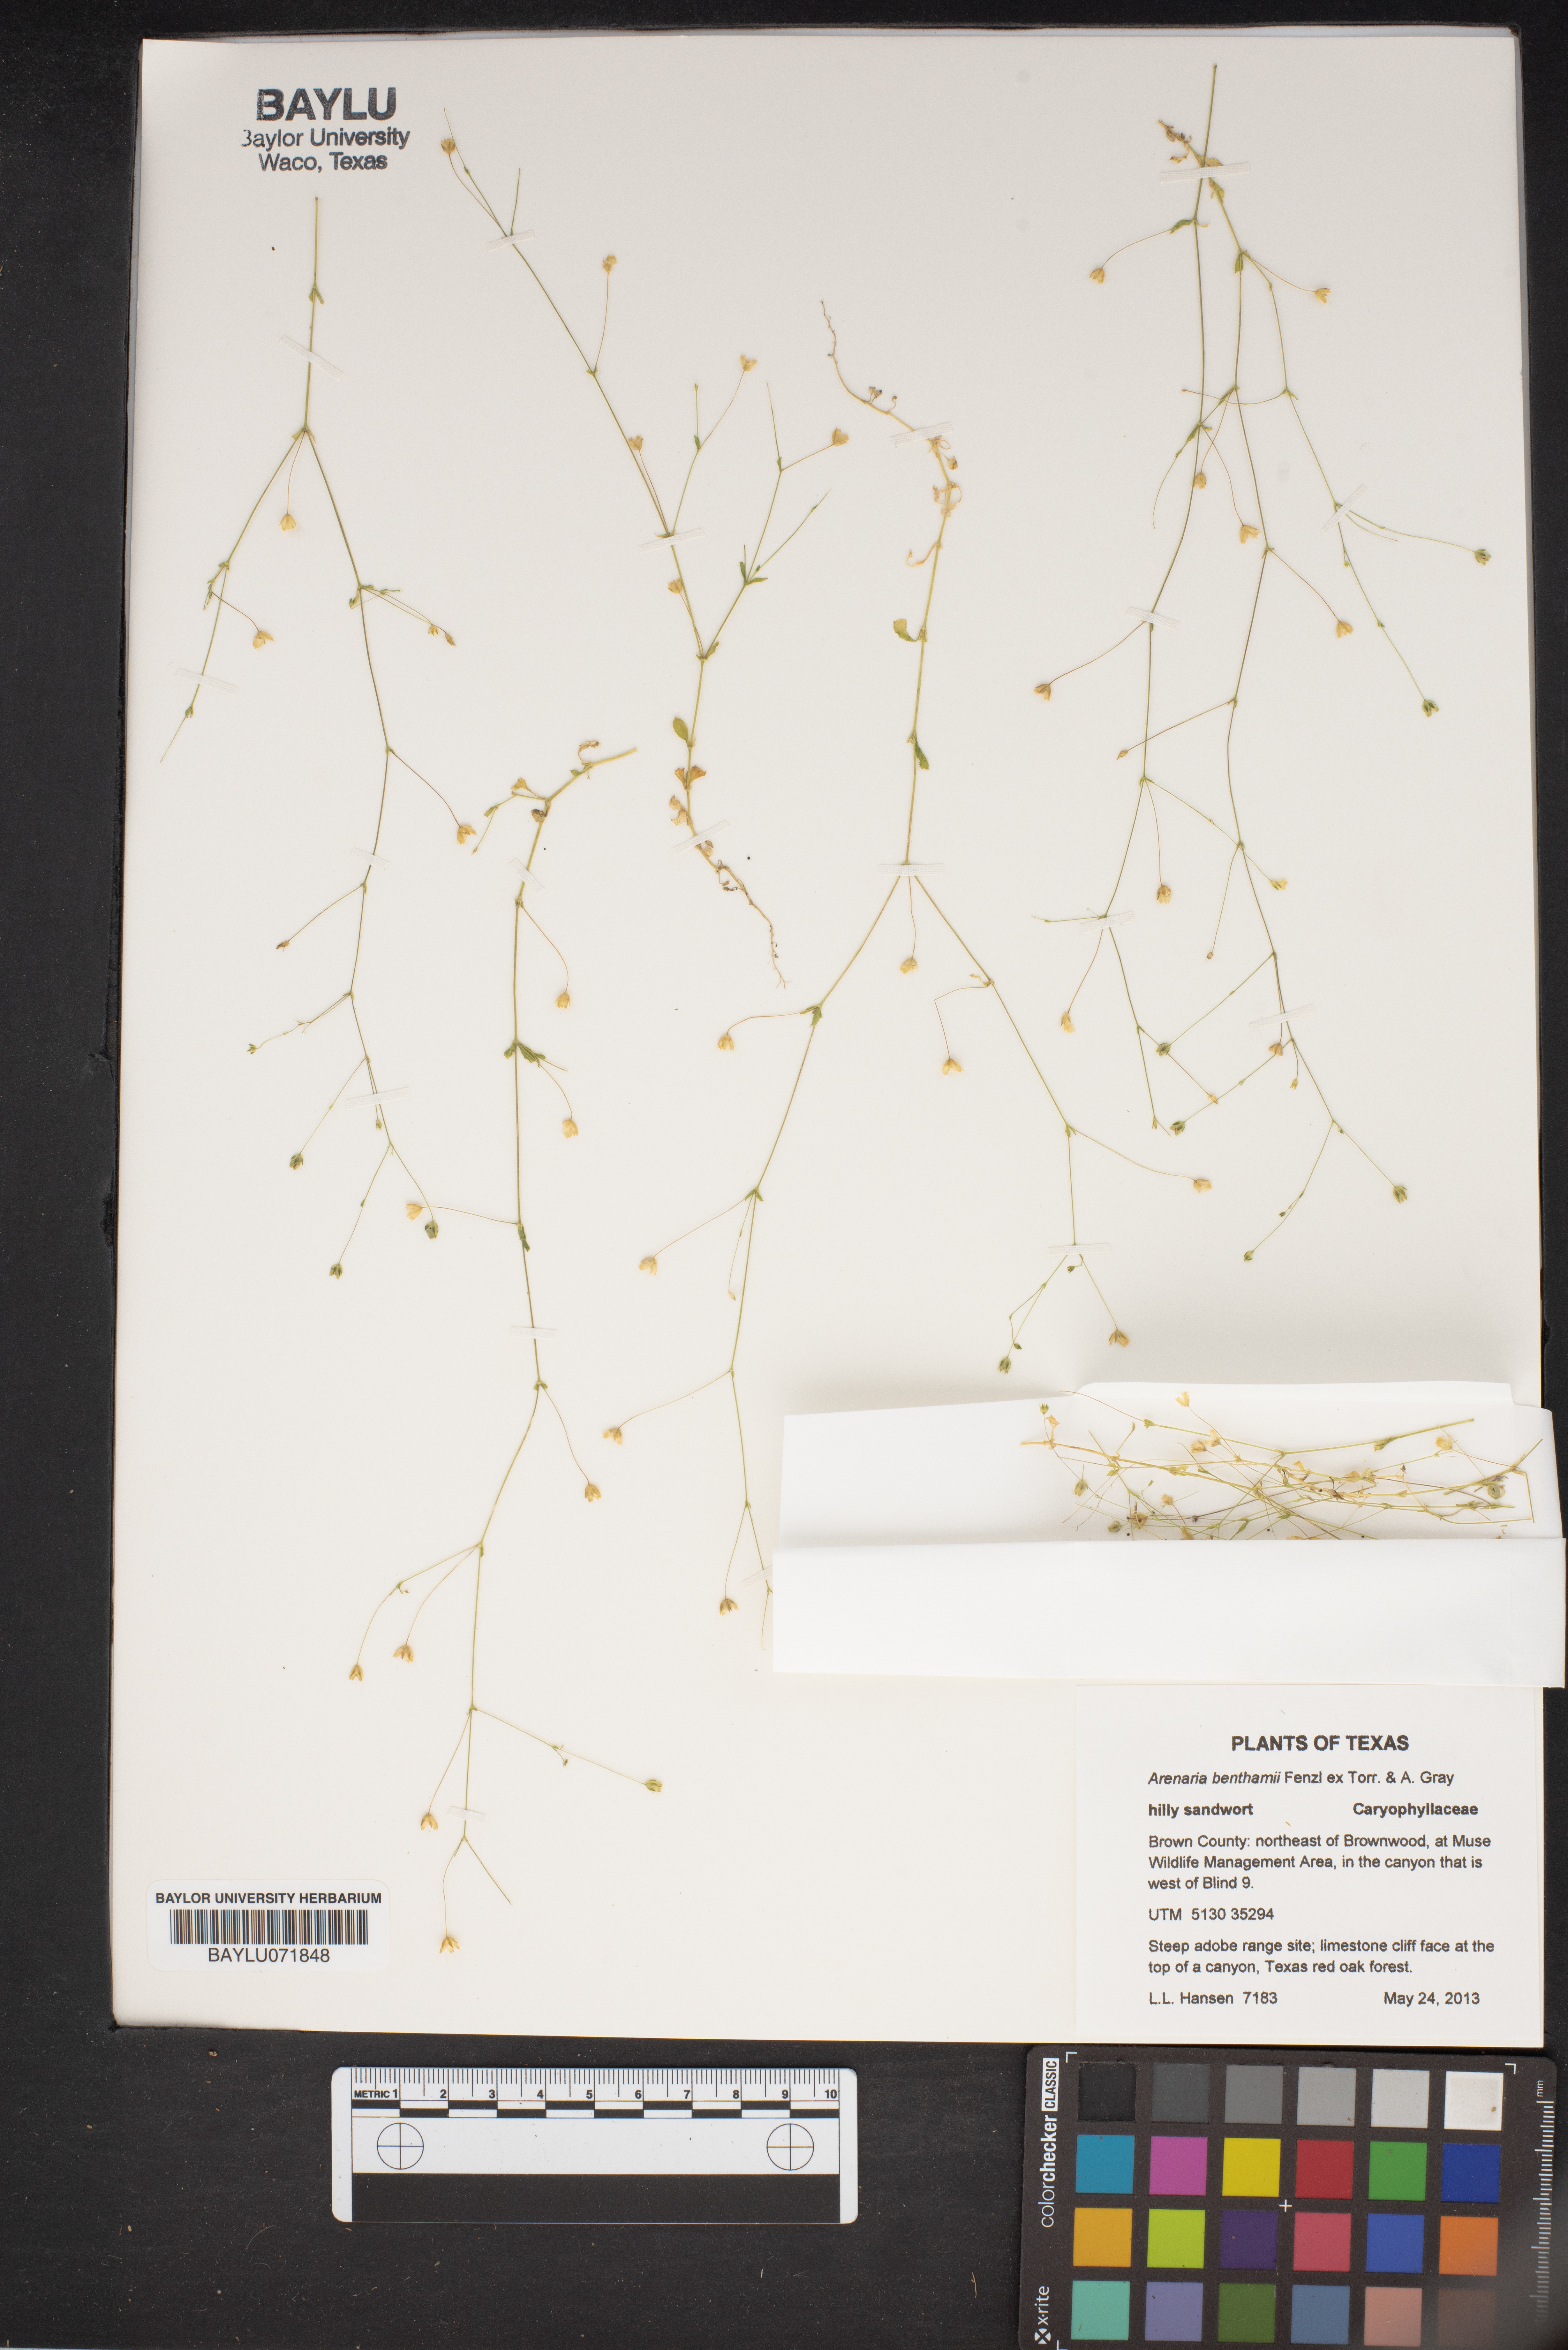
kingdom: Plantae
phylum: Tracheophyta
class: Magnoliopsida
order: Caryophyllales
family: Caryophyllaceae
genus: Arenaria
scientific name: Arenaria benthamii
